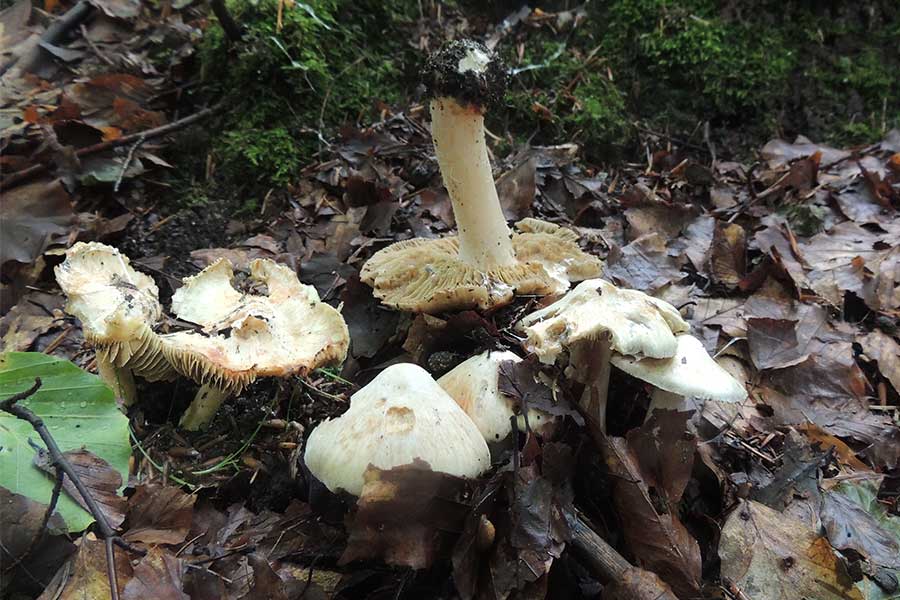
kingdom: Fungi
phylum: Basidiomycota
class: Agaricomycetes
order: Agaricales
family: Inocybaceae
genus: Inosperma
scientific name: Inosperma erubescens
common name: giftig trævlhat
